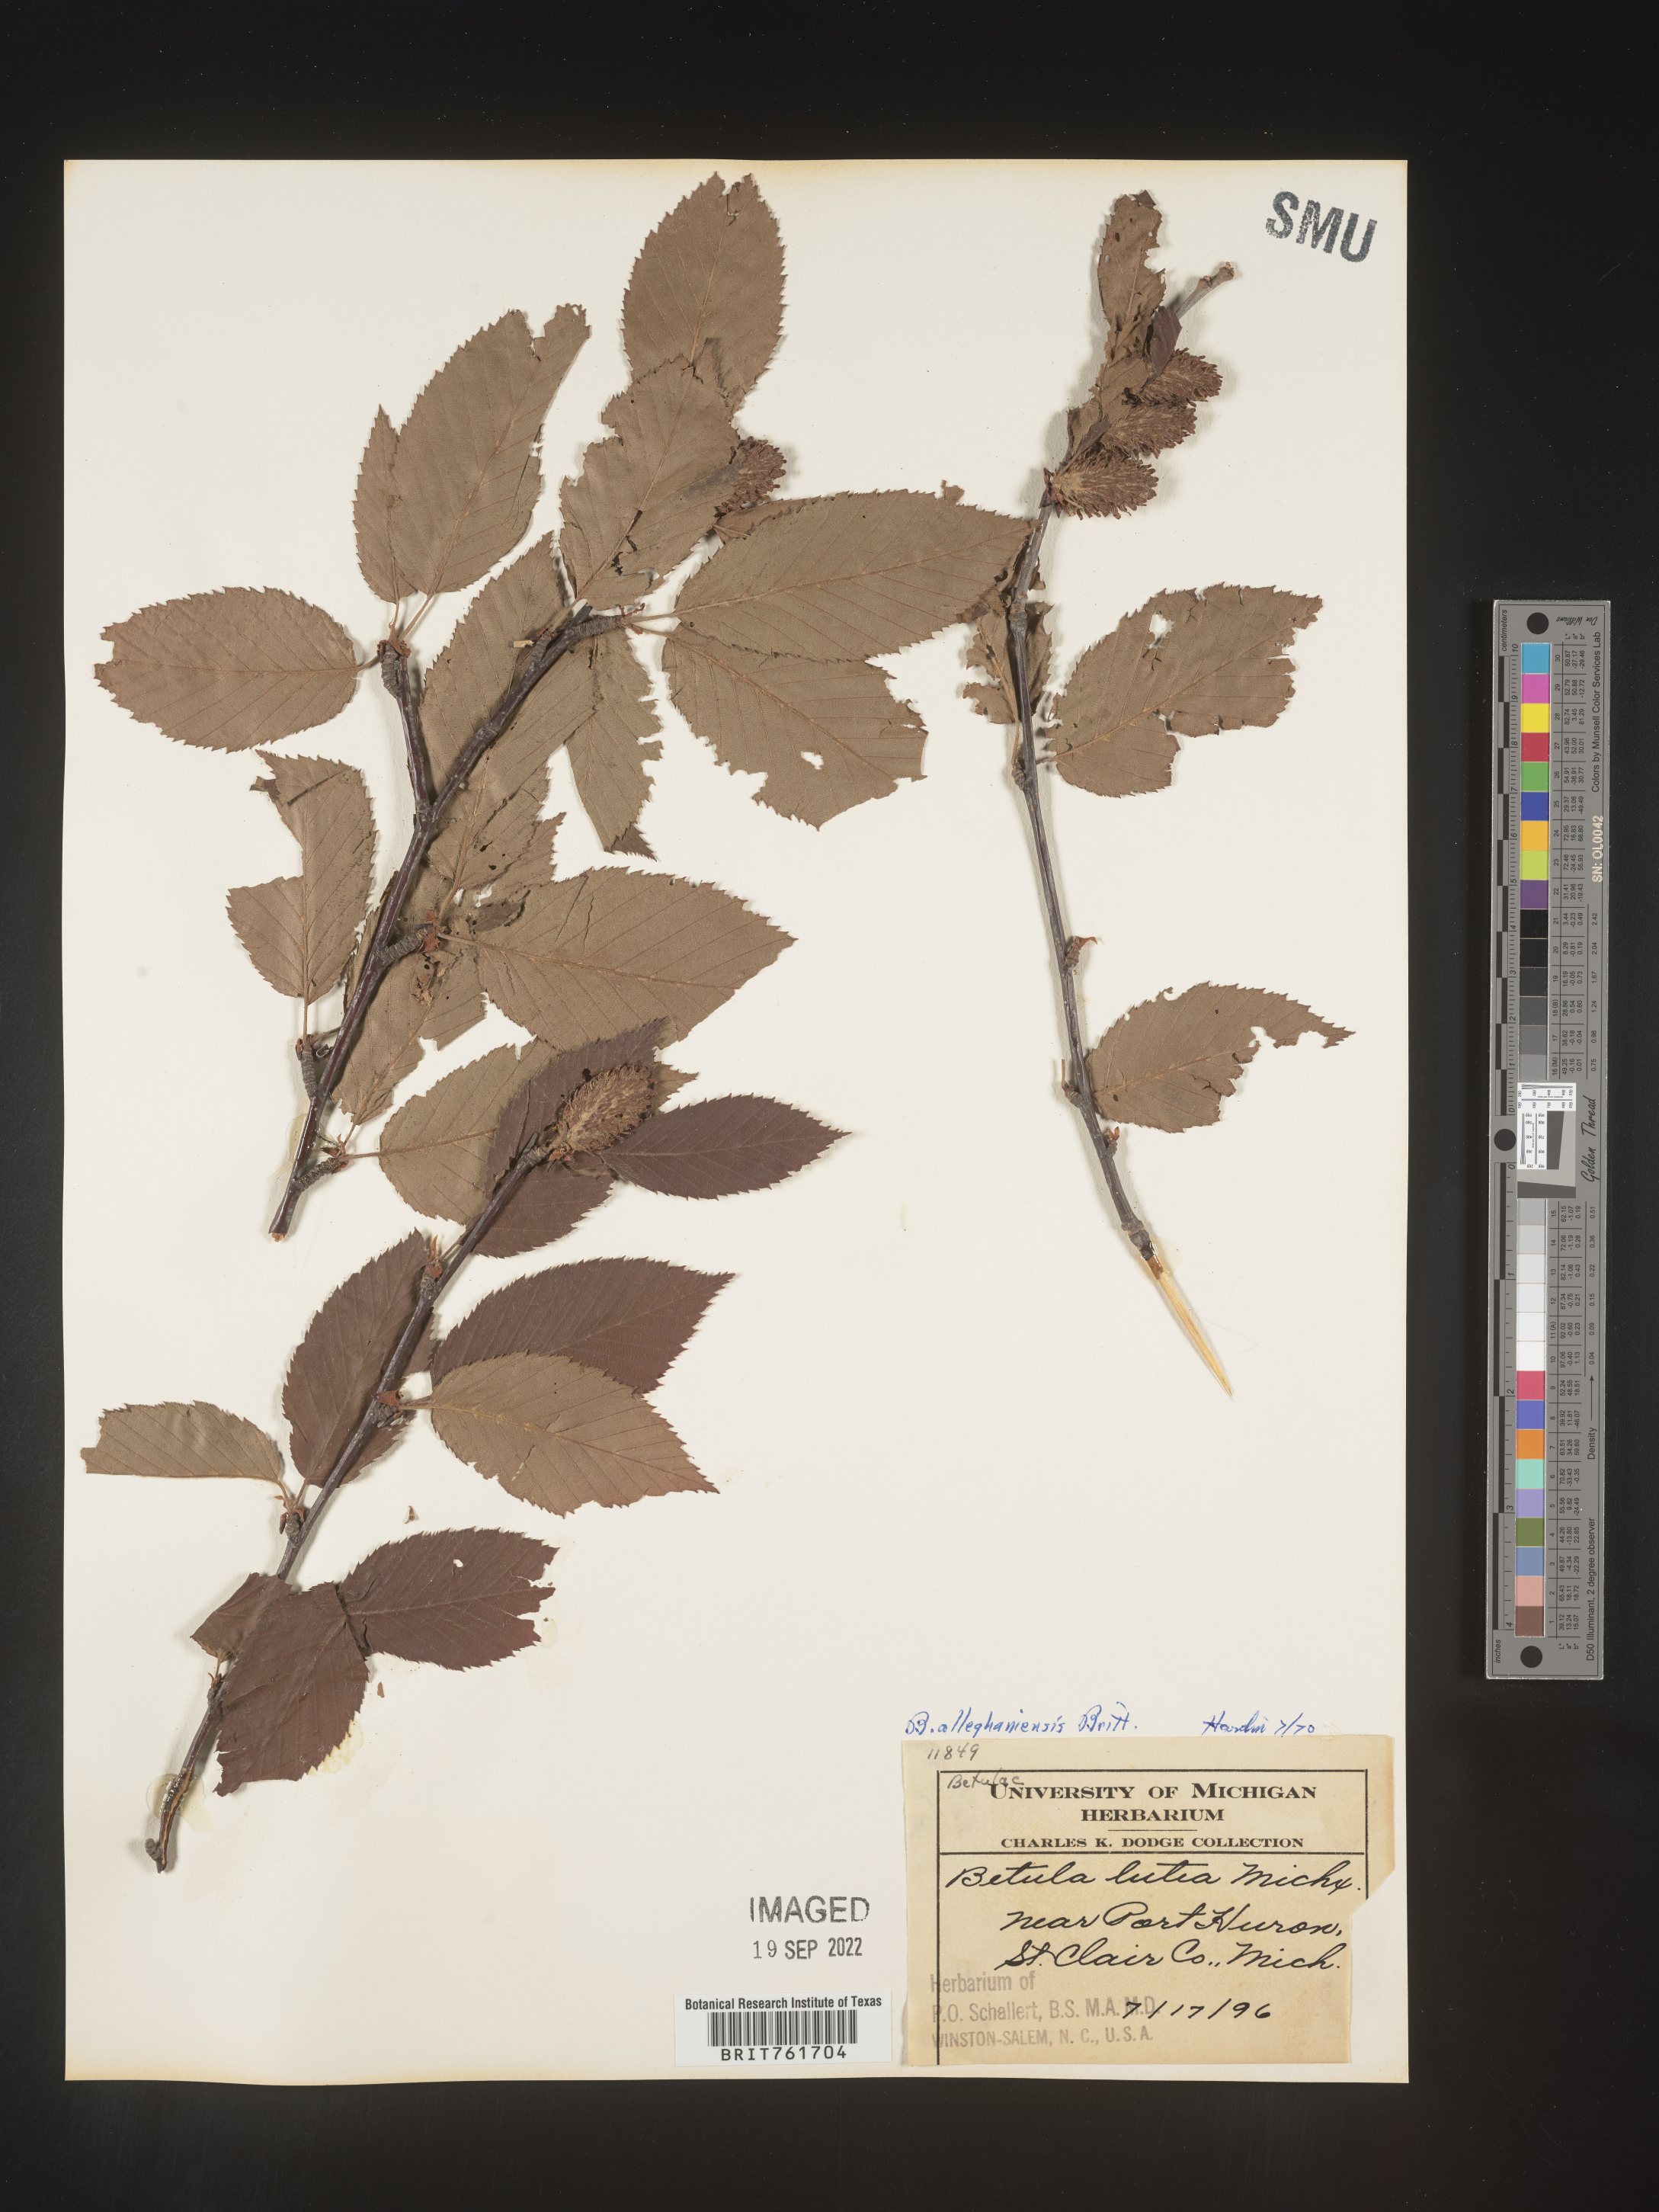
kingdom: Plantae
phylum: Tracheophyta
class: Magnoliopsida
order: Fagales
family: Betulaceae
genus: Betula
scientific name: Betula alleghaniensis
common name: Yellow birch
